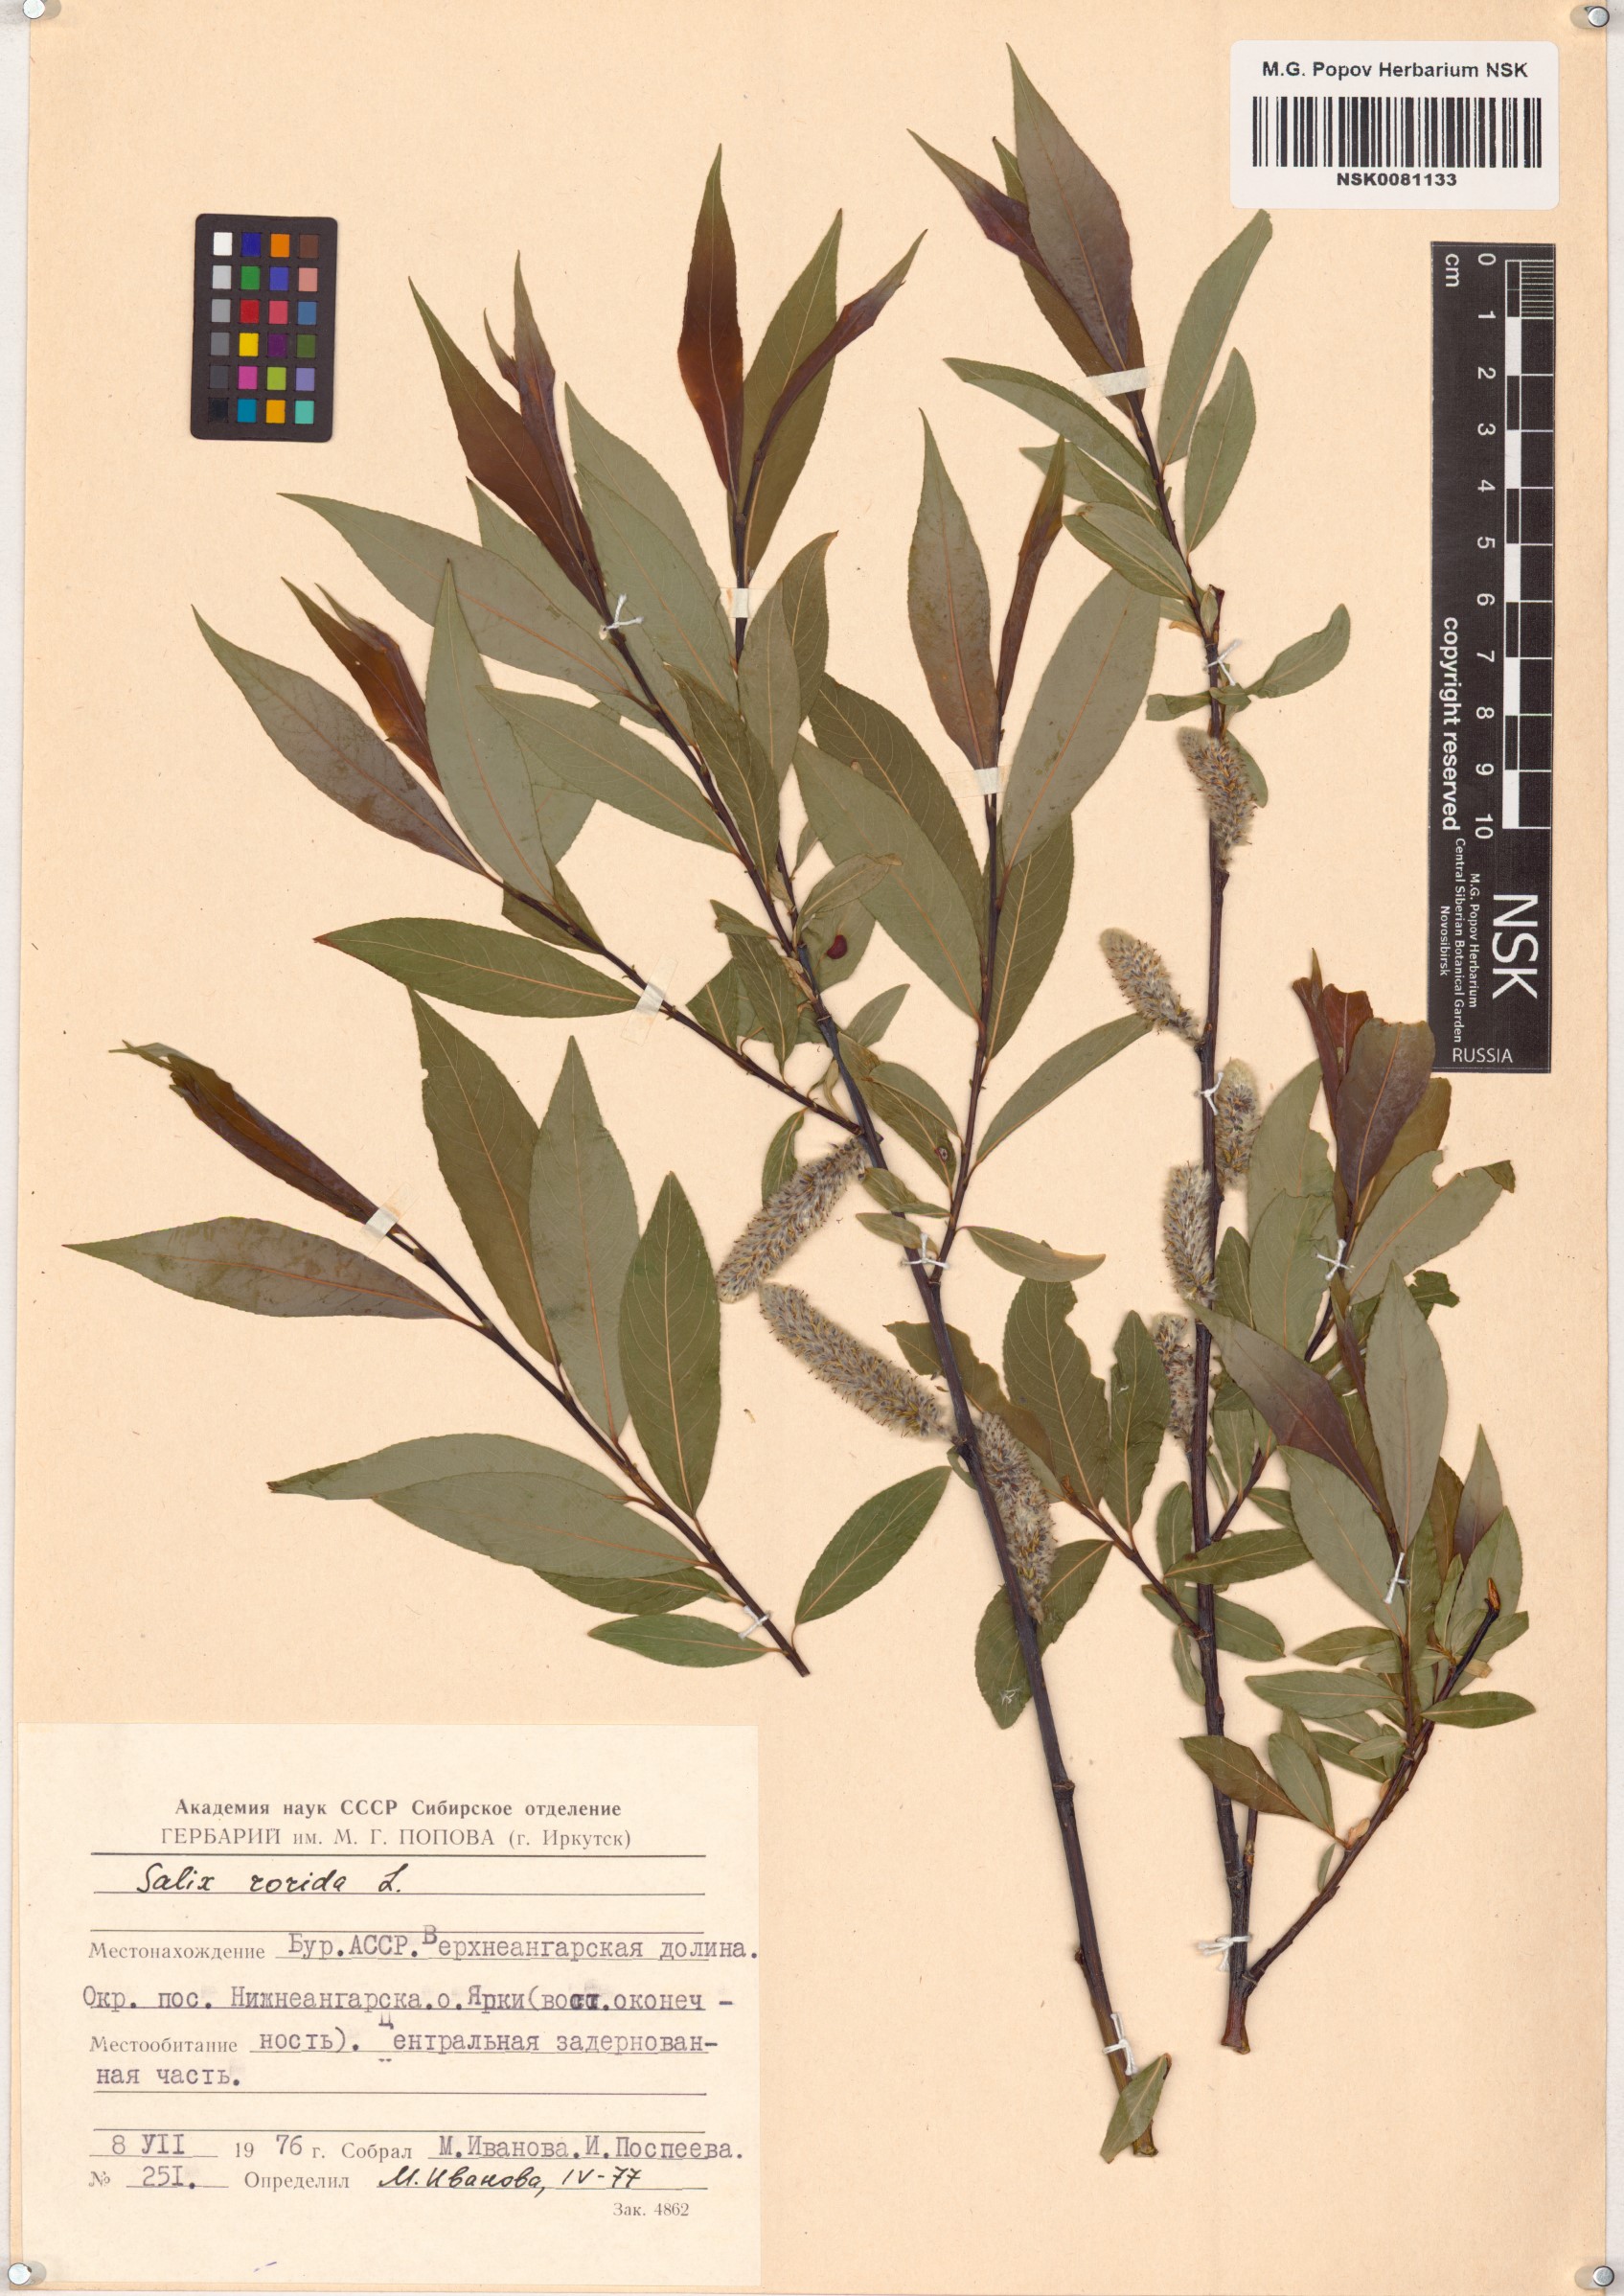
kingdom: Plantae
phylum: Tracheophyta
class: Magnoliopsida
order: Malpighiales
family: Salicaceae
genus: Salix
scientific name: Salix rorida
